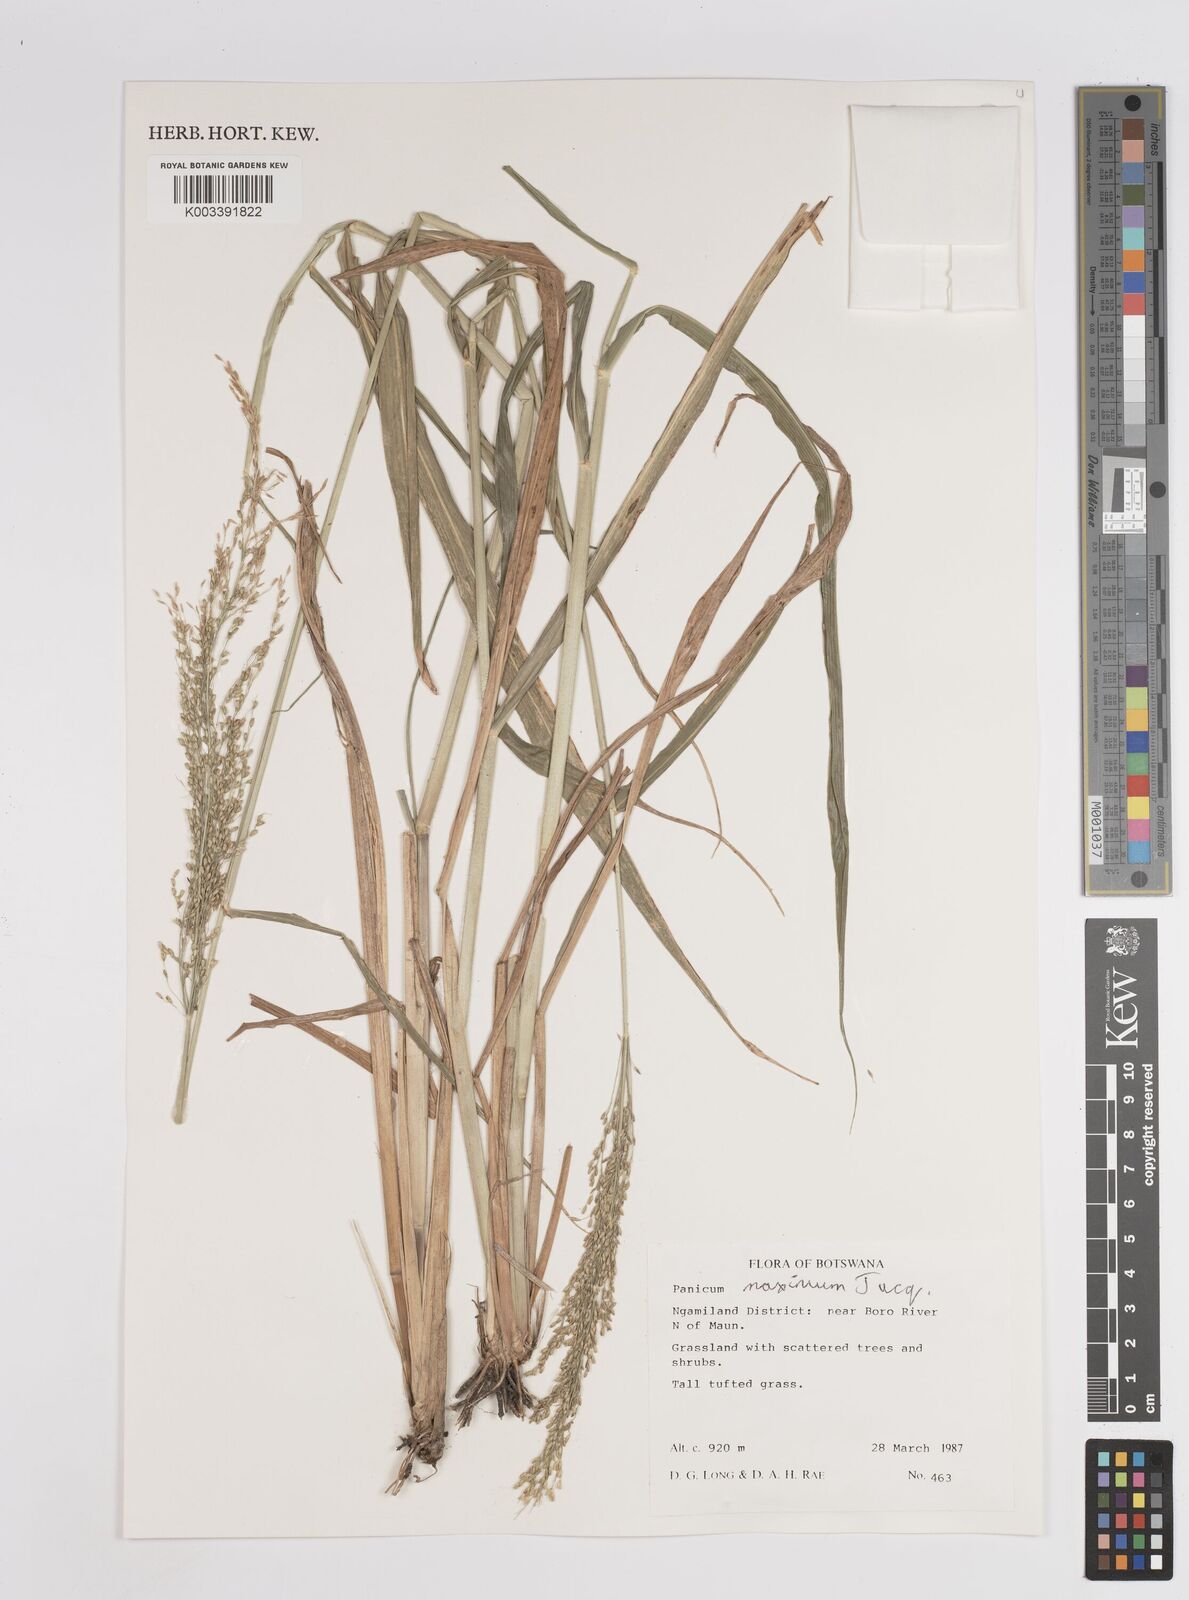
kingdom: Plantae
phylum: Tracheophyta
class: Liliopsida
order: Poales
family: Poaceae
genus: Megathyrsus
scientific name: Megathyrsus maximus
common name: Guineagrass
